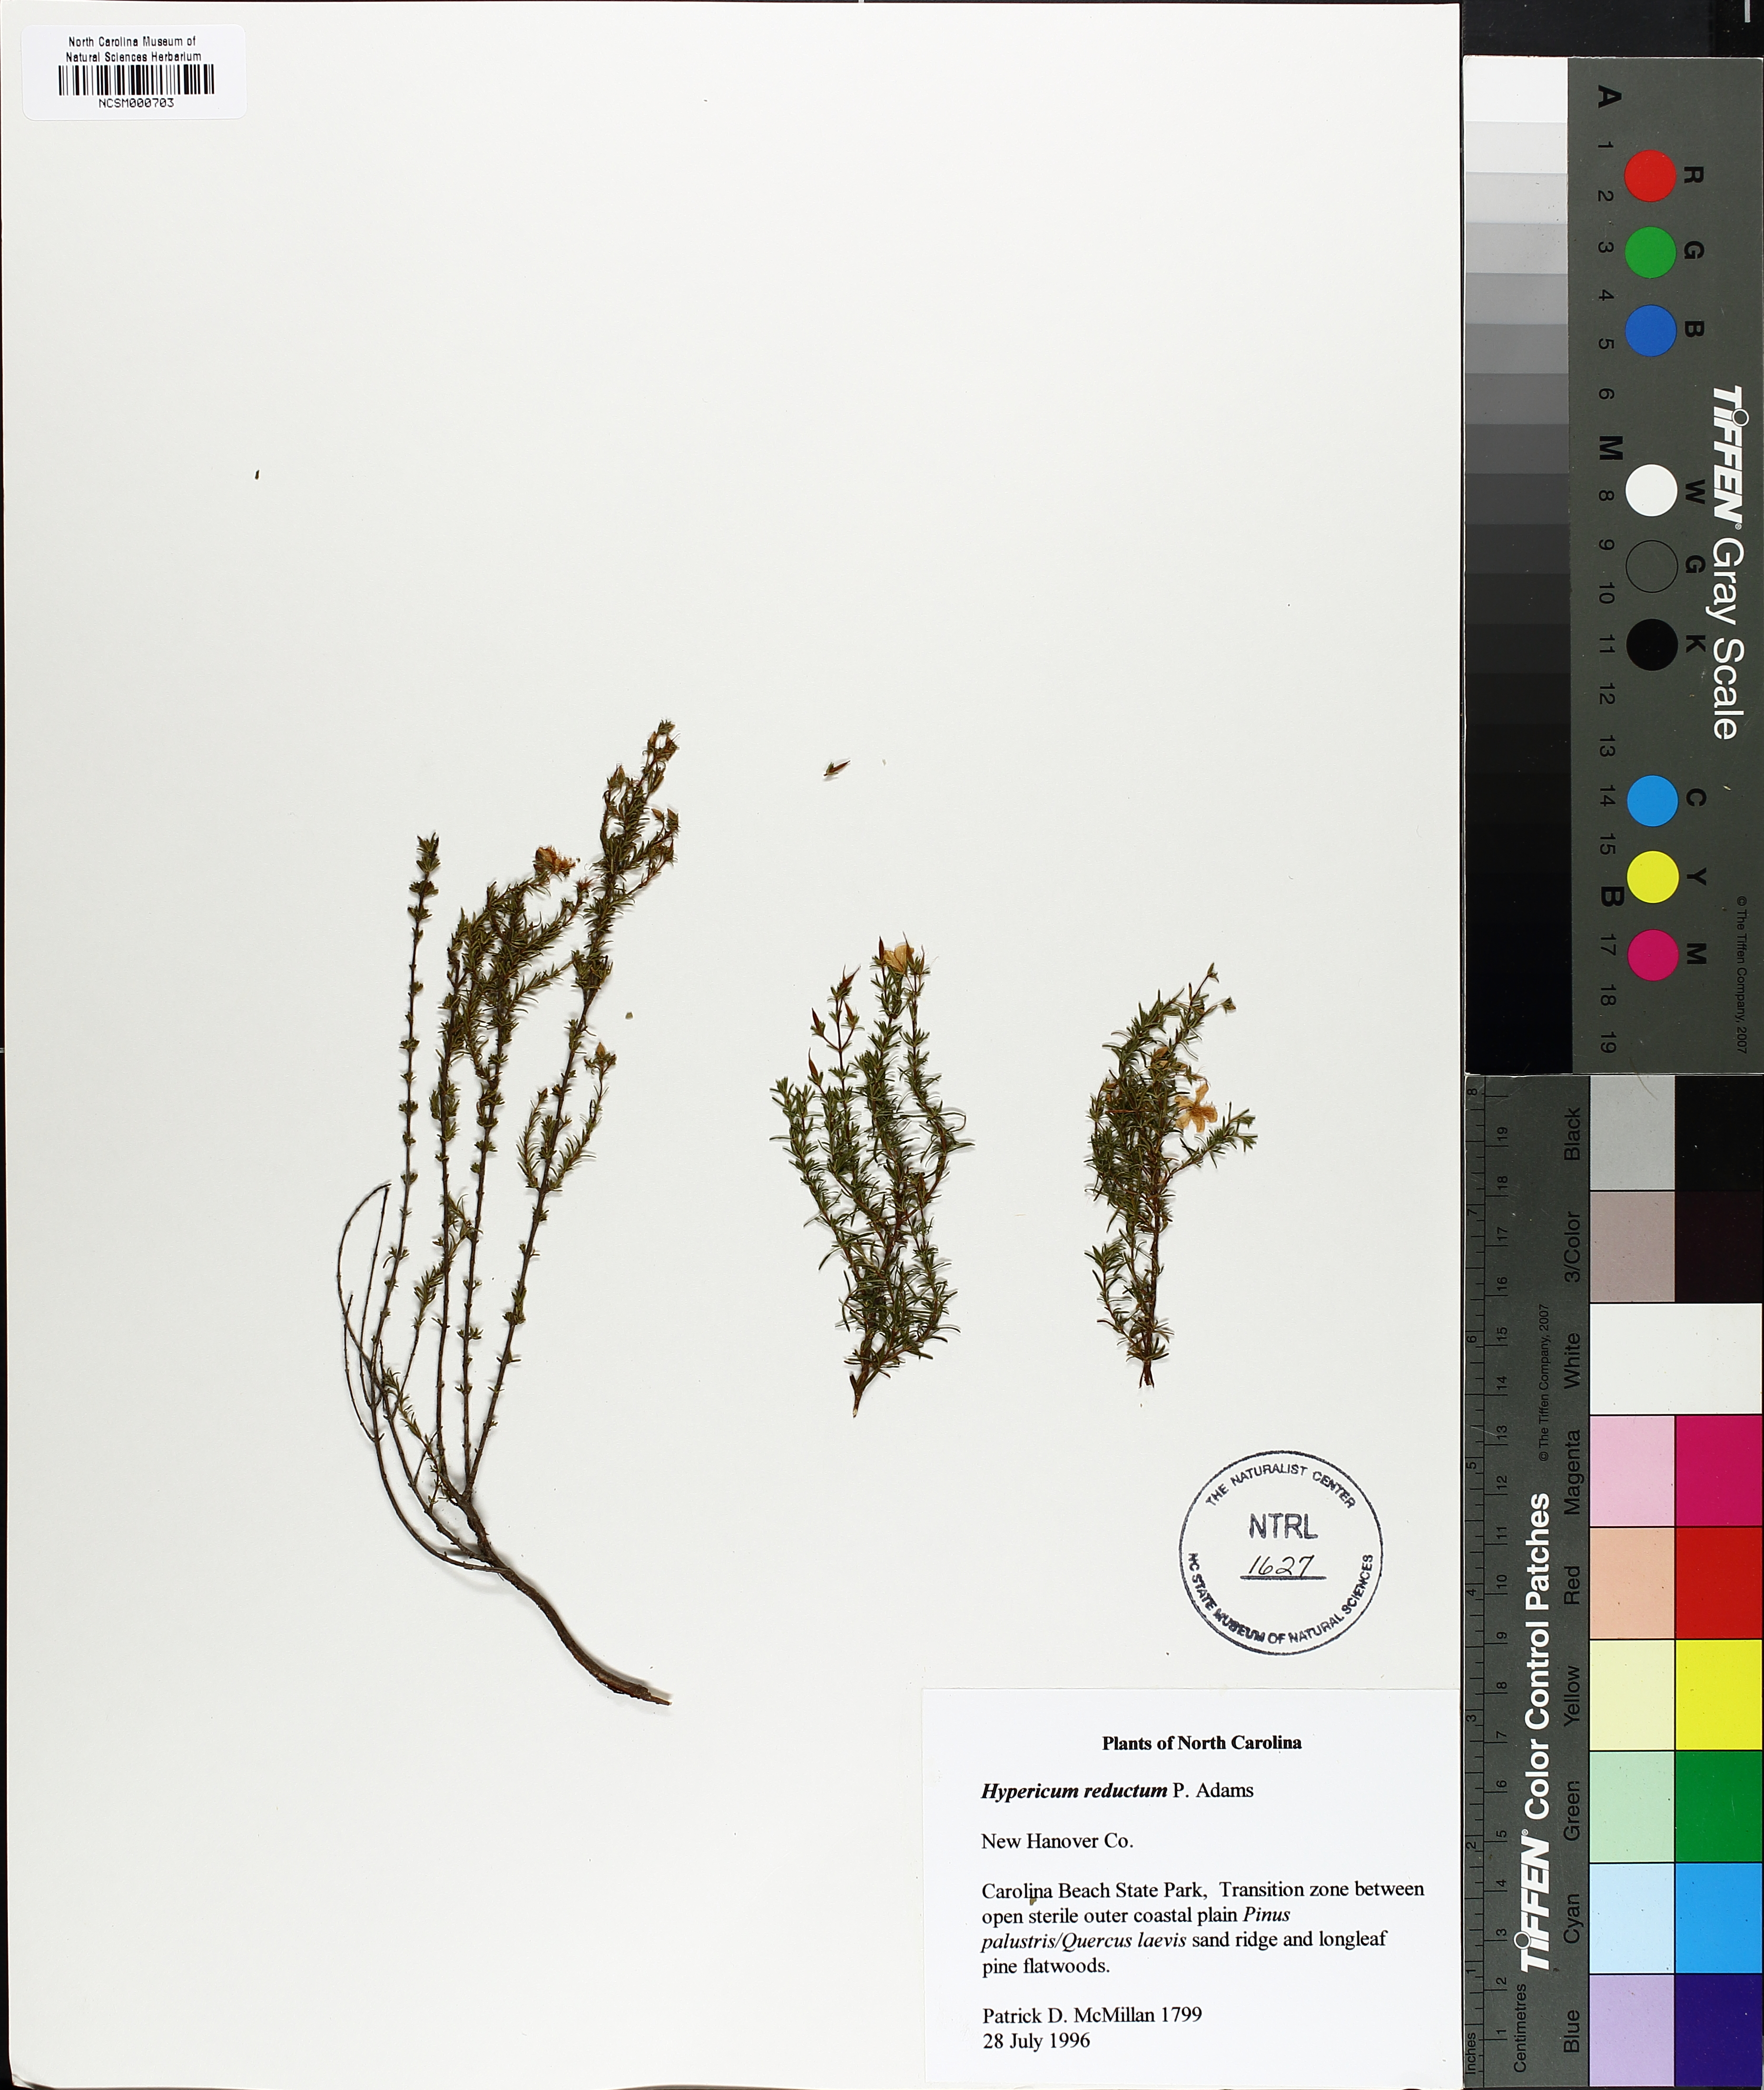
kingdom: Plantae
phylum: Tracheophyta
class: Magnoliopsida
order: Malpighiales
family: Hypericaceae
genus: Hypericum
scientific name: Hypericum tenuifolium
